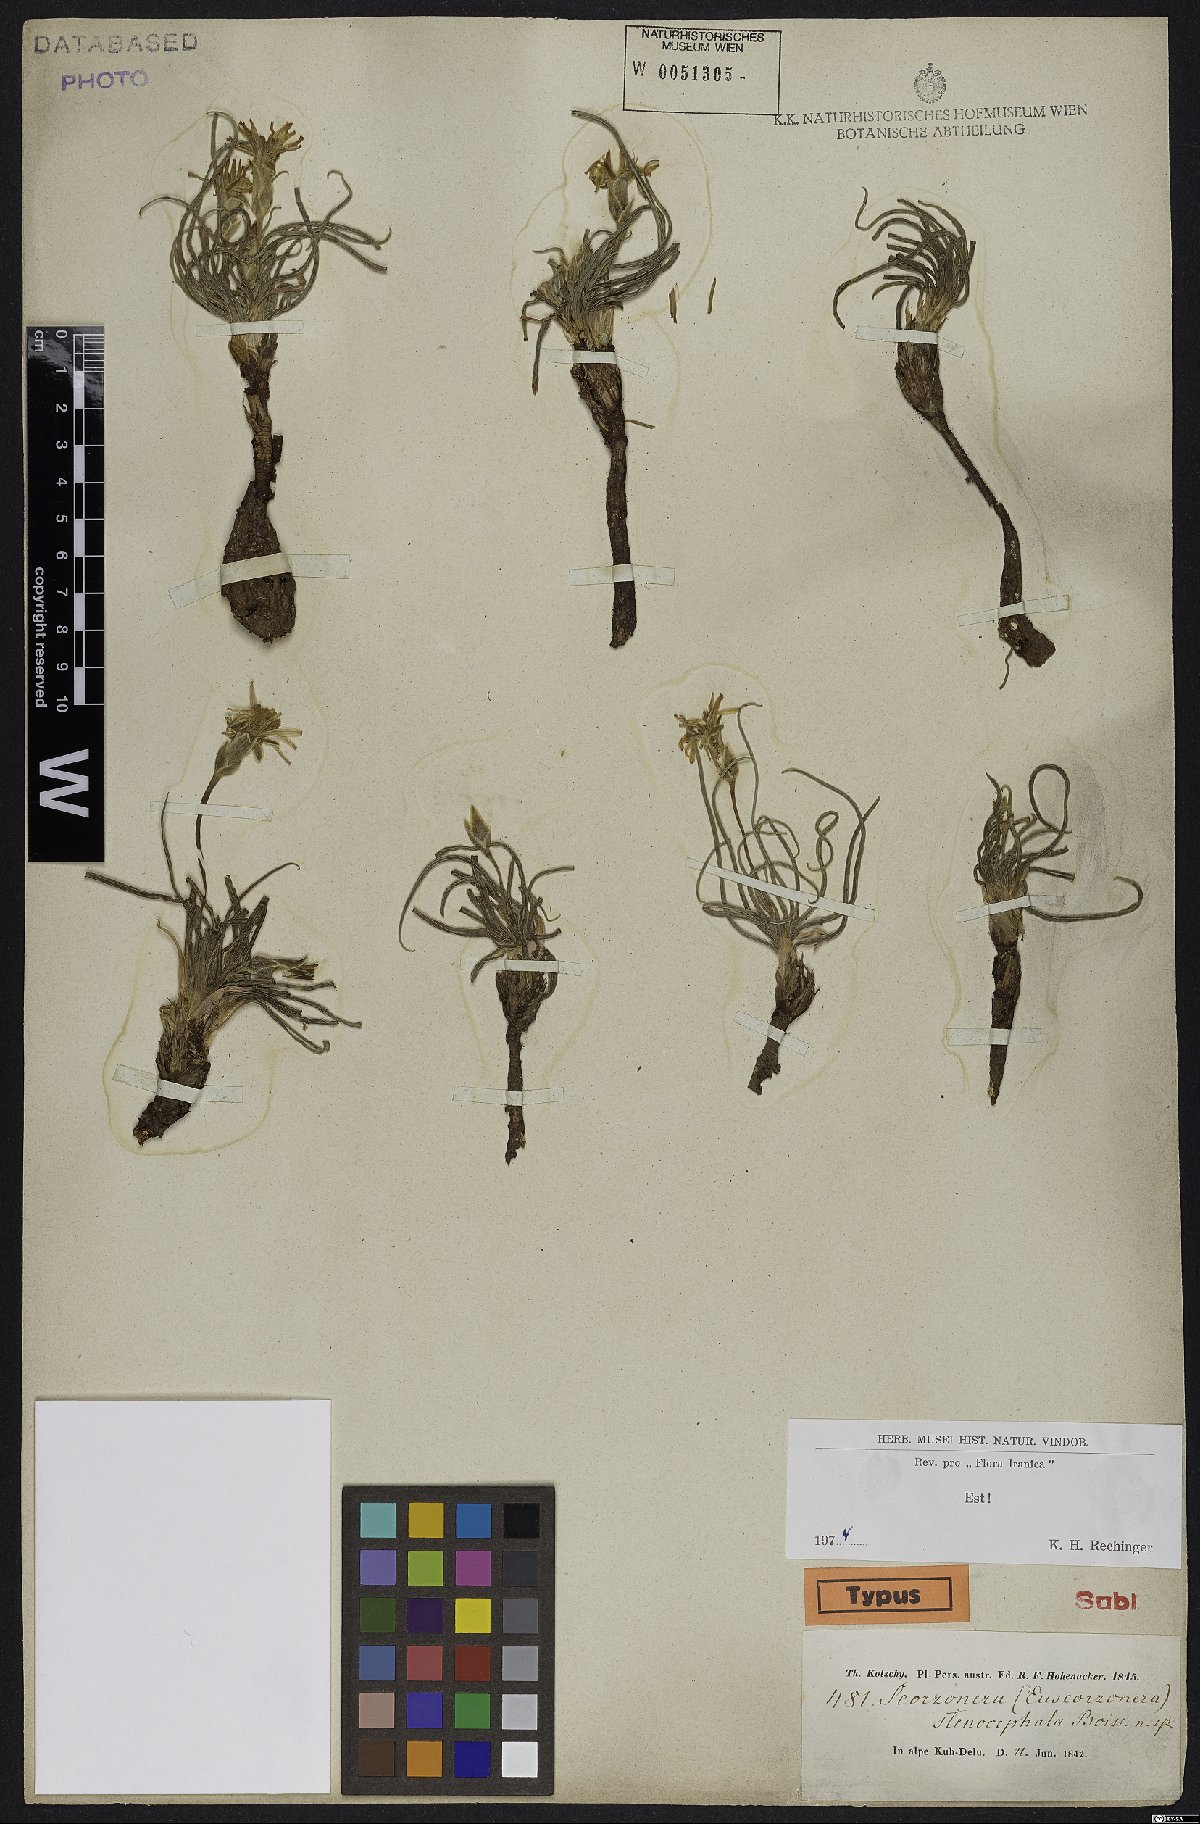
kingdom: Plantae
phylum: Tracheophyta
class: Magnoliopsida
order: Asterales
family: Asteraceae
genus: Candollea
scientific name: Candollea szowitzii
